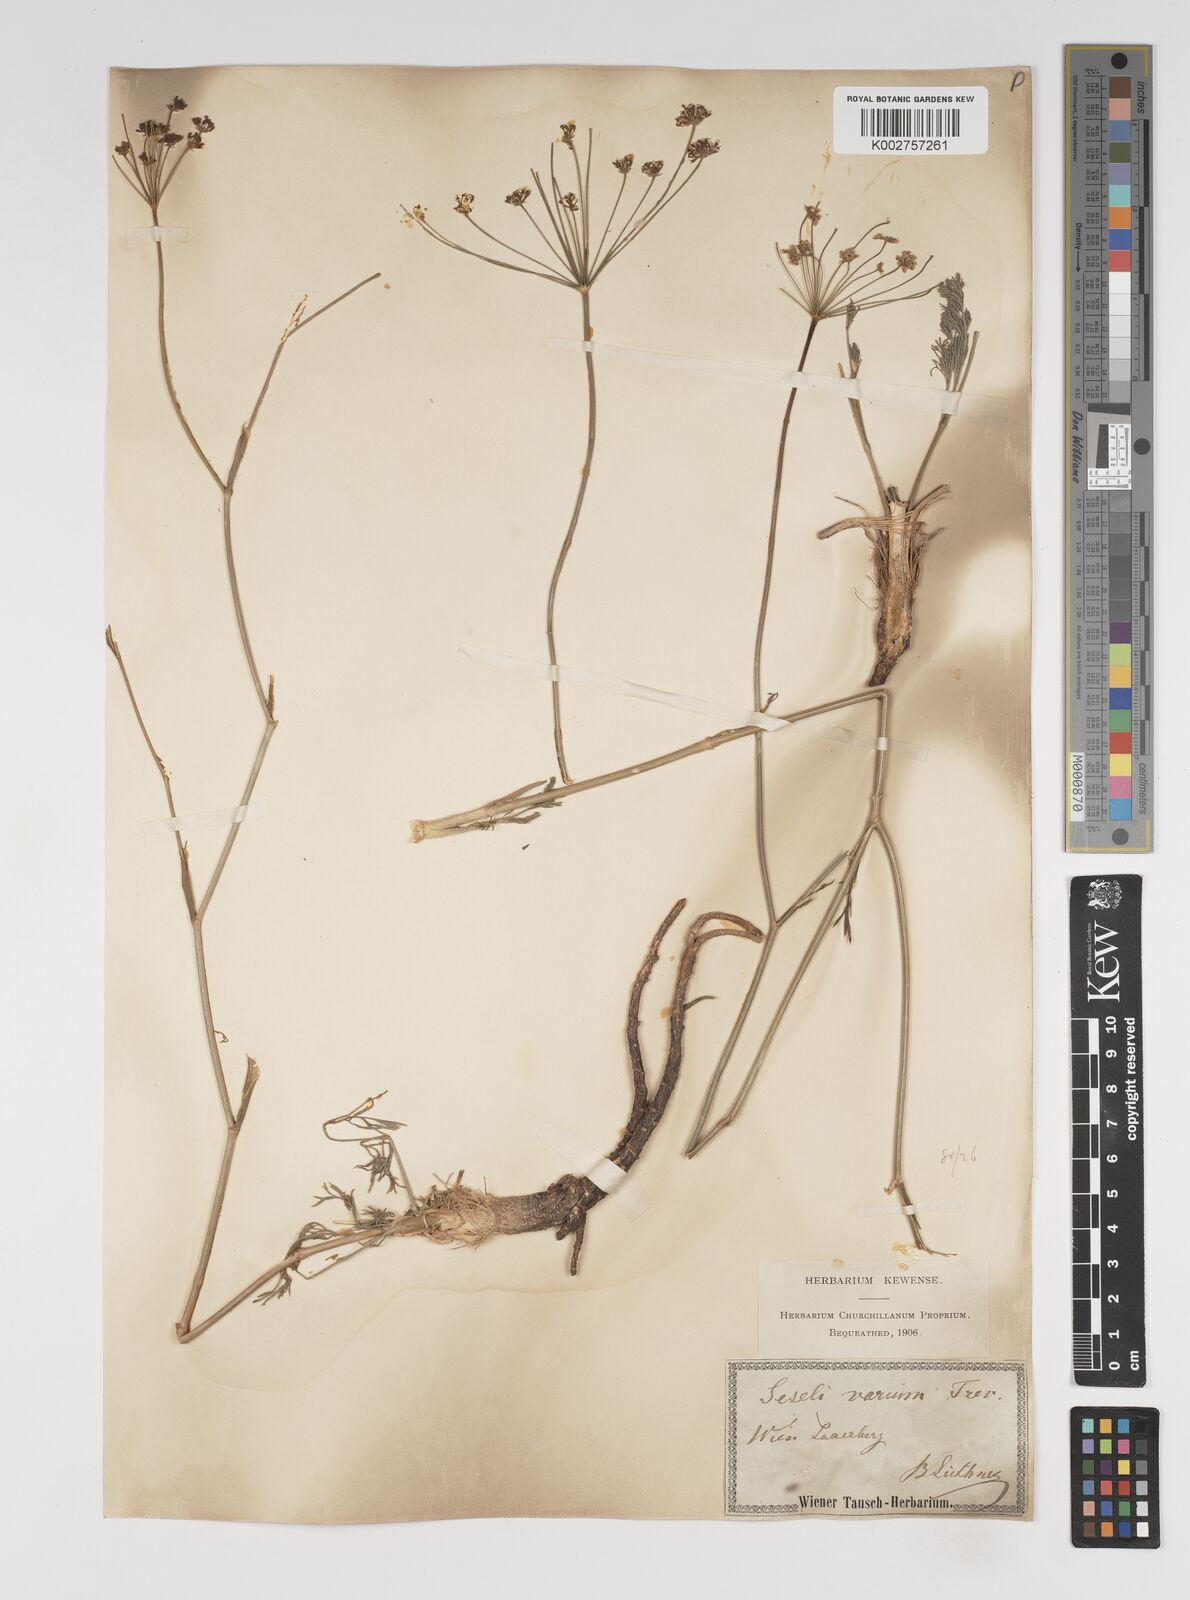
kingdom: Plantae
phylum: Tracheophyta
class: Magnoliopsida
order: Apiales
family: Apiaceae
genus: Seseli
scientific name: Seseli pallasii
